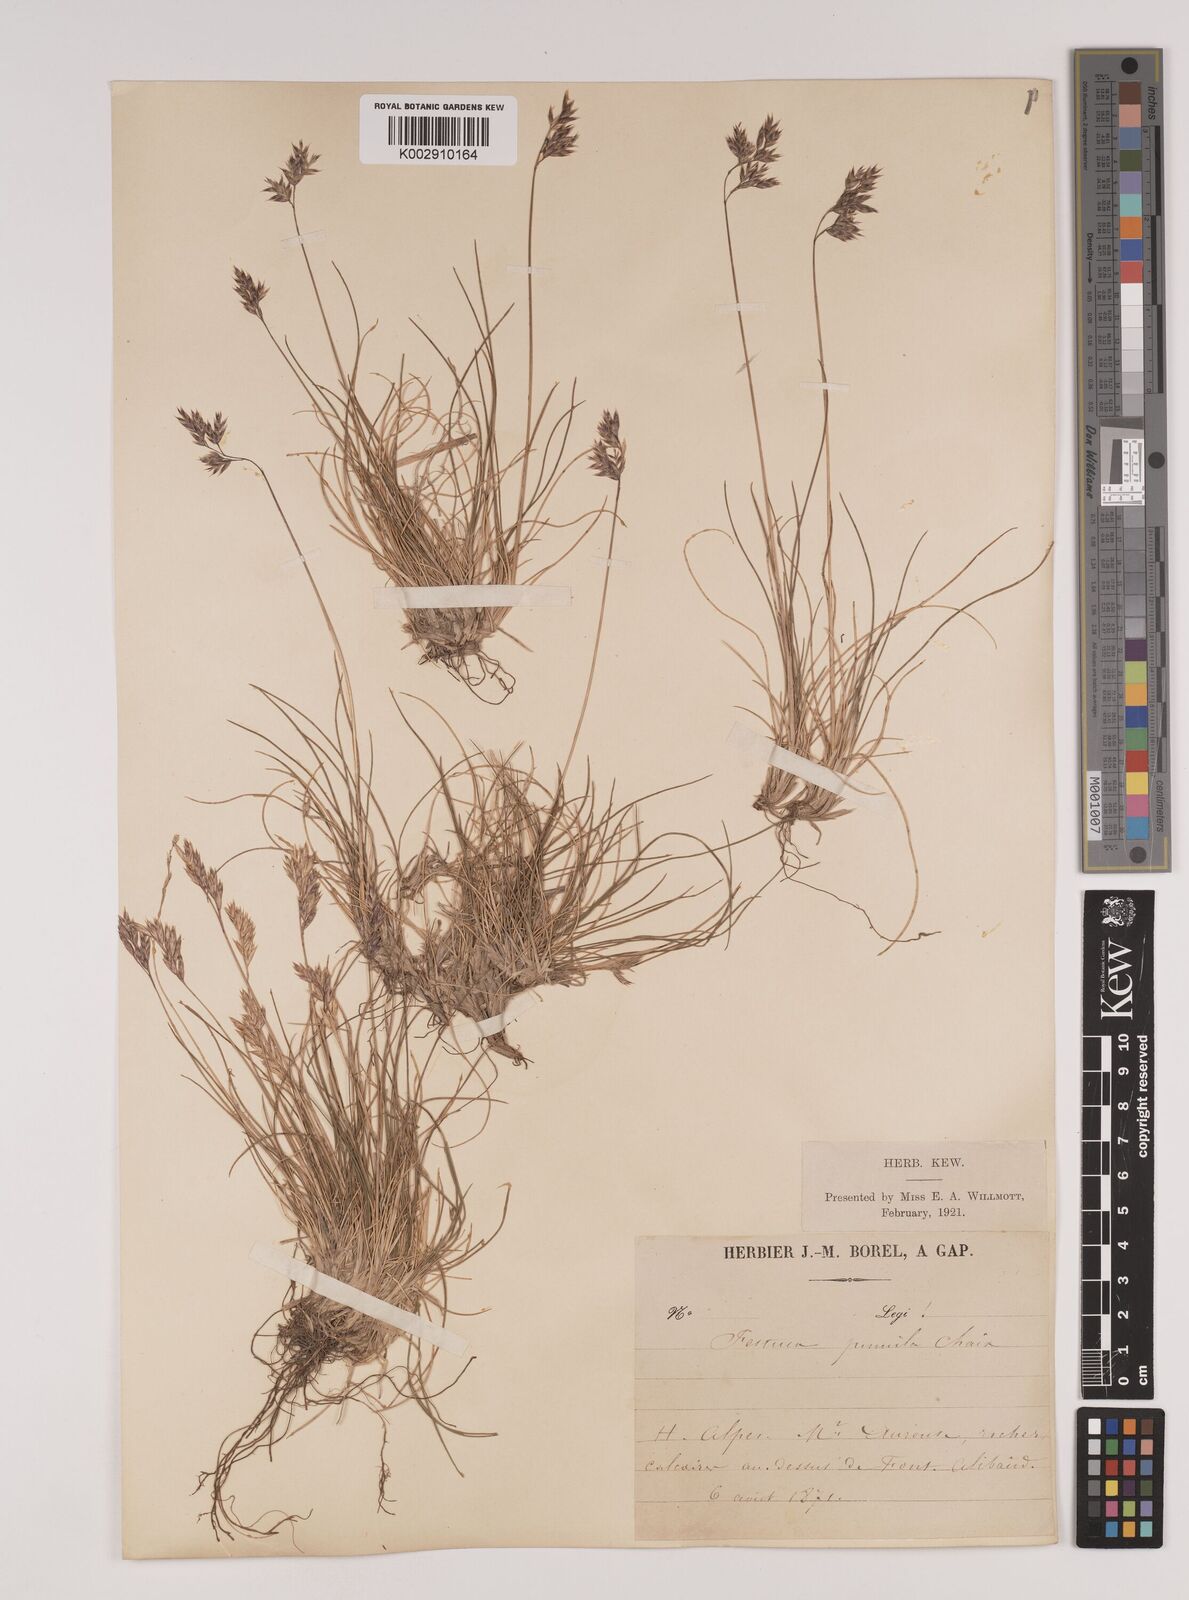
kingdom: Plantae
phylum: Tracheophyta
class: Liliopsida
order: Poales
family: Poaceae
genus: Festuca
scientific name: Festuca
